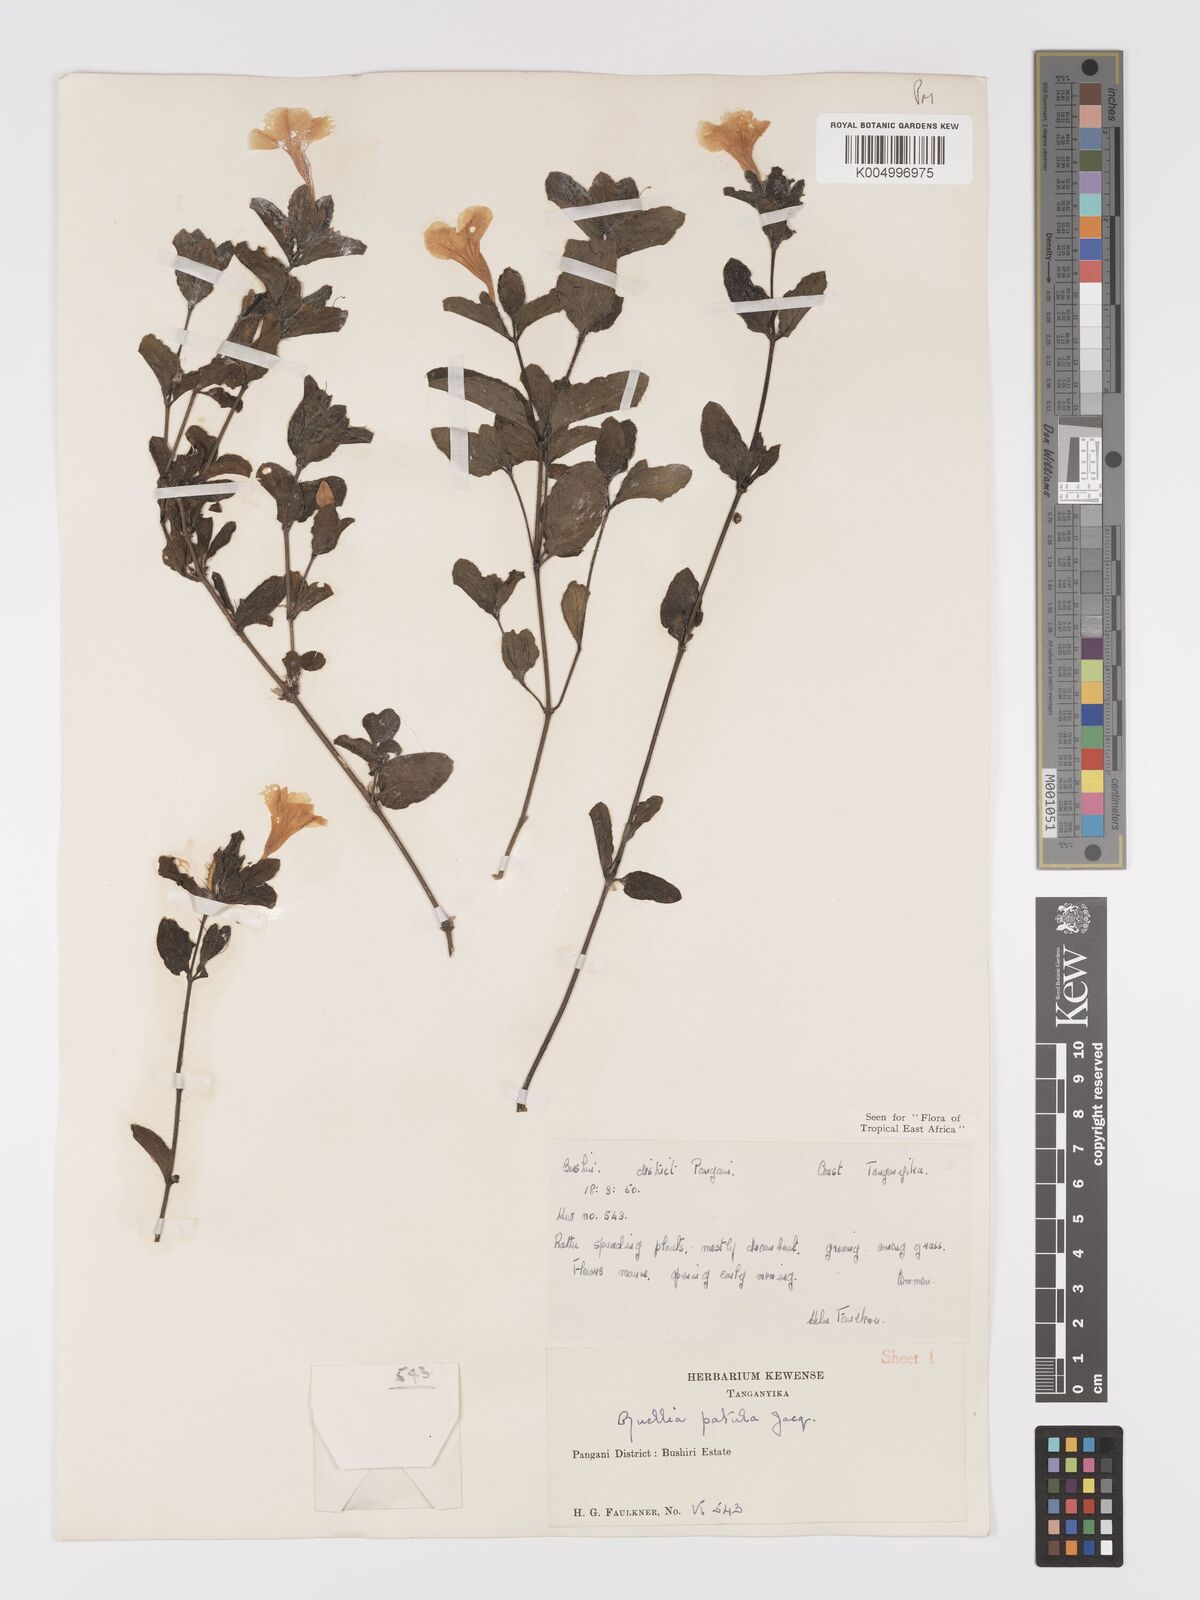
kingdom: Plantae
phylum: Tracheophyta
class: Magnoliopsida
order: Lamiales
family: Acanthaceae
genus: Ruellia
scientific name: Ruellia patula
